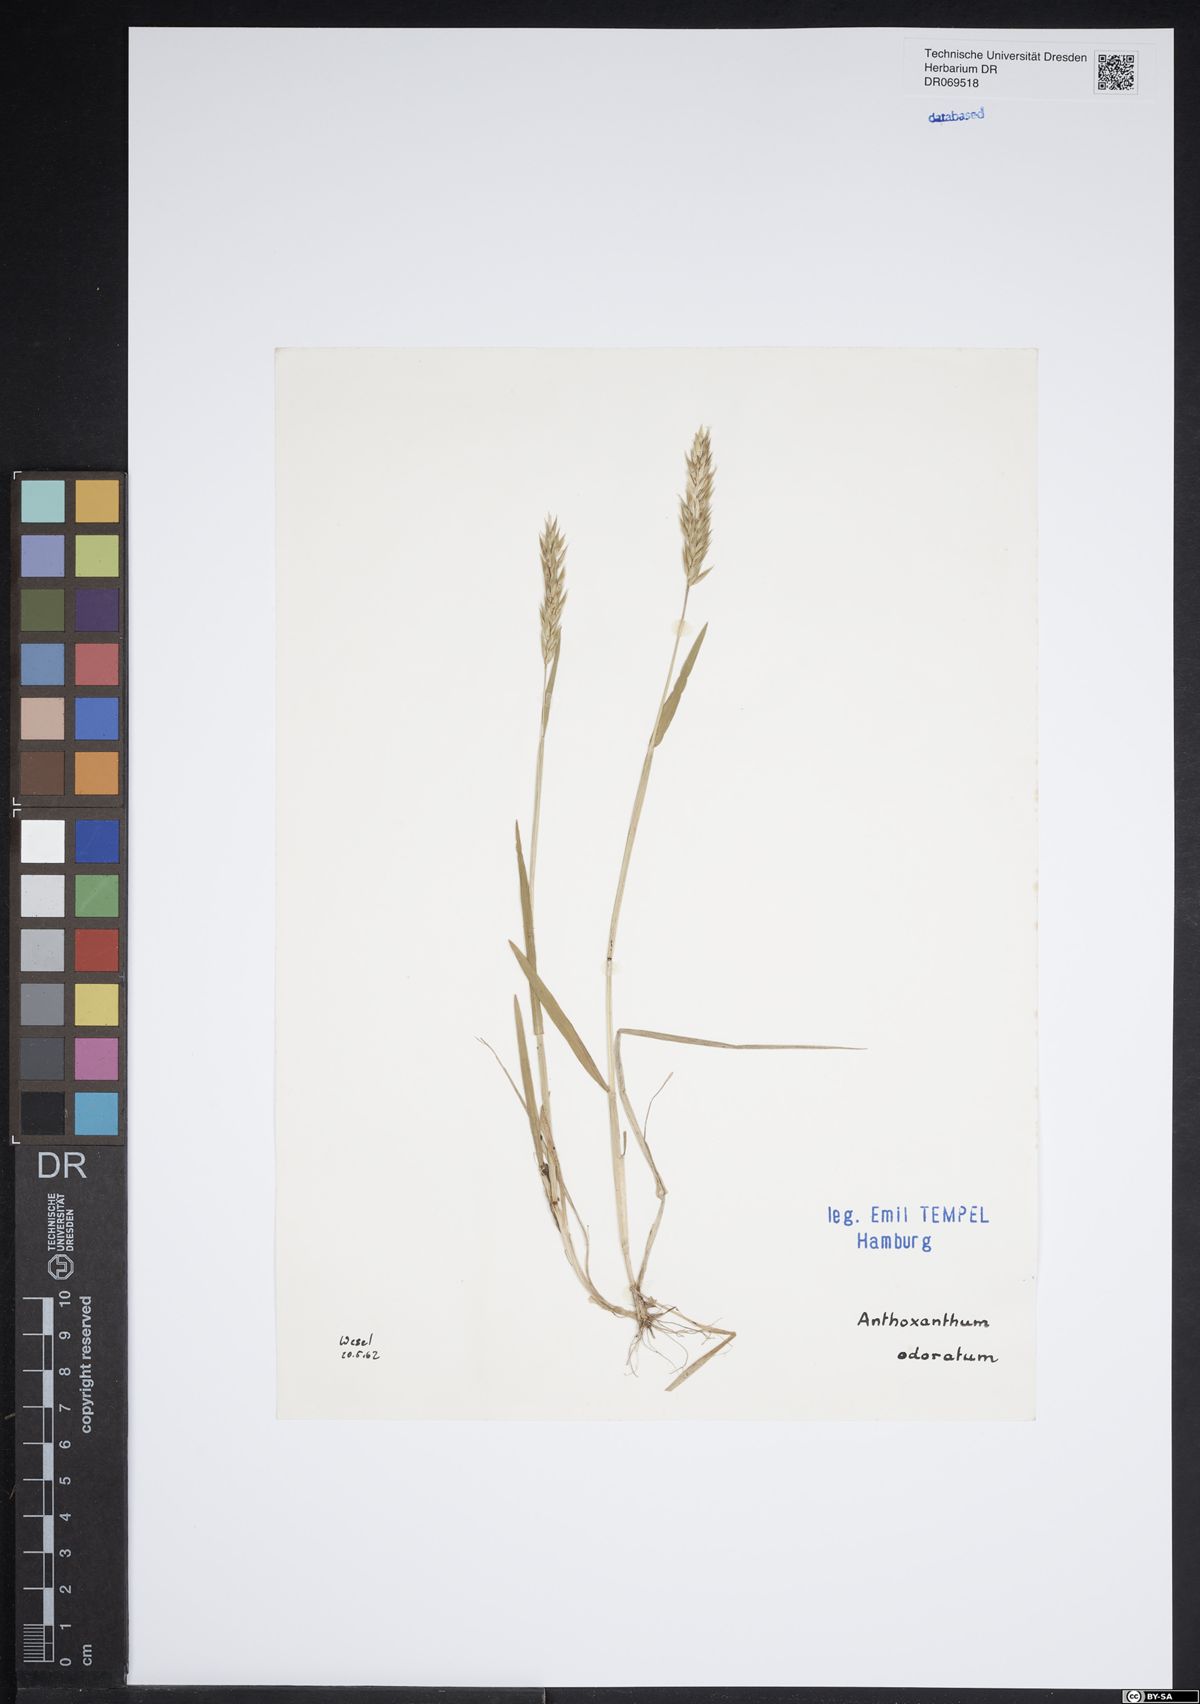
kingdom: Plantae
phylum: Tracheophyta
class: Liliopsida
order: Poales
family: Poaceae
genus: Anthoxanthum
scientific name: Anthoxanthum odoratum
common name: Sweet vernalgrass
